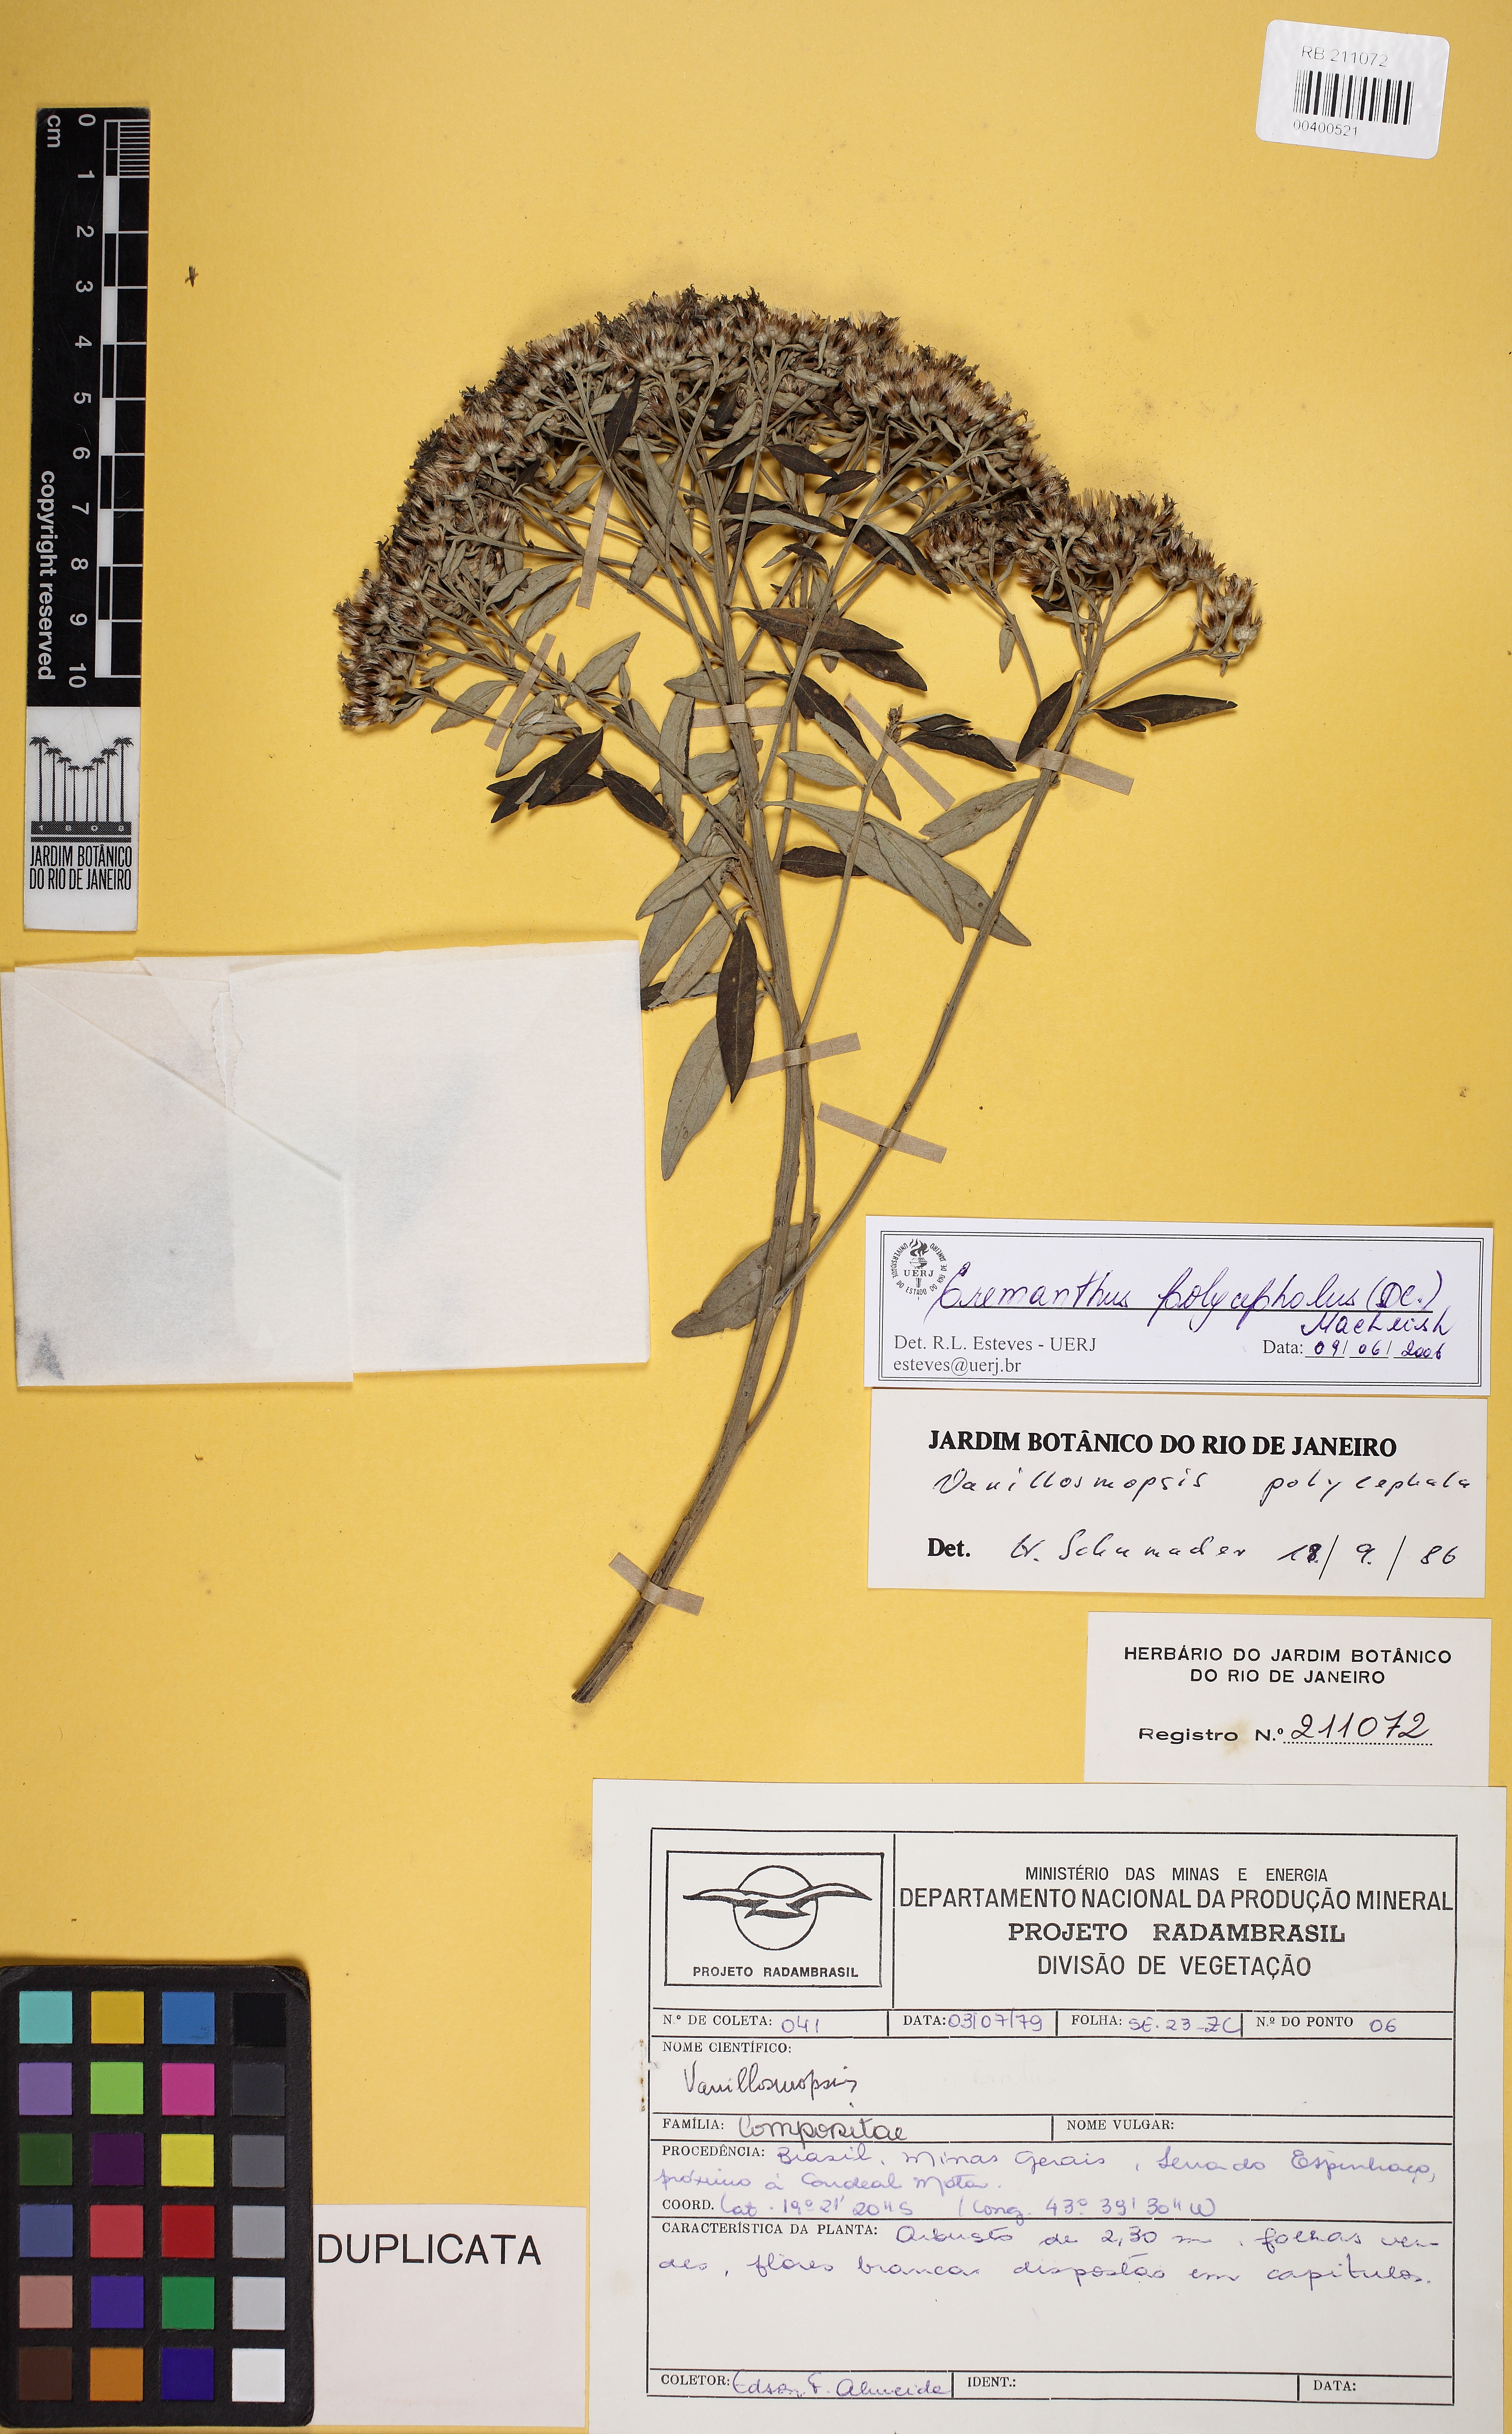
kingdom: Plantae
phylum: Tracheophyta
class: Magnoliopsida
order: Asterales
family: Asteraceae
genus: Eremanthus
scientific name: Eremanthus polycephalus
